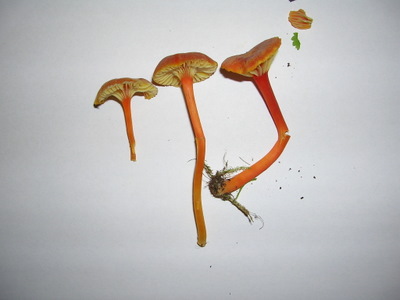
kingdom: Fungi
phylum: Basidiomycota
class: Agaricomycetes
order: Agaricales
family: Hygrophoraceae
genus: Hygrocybe
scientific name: Hygrocybe cantharellus
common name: kantarel-vokshat
